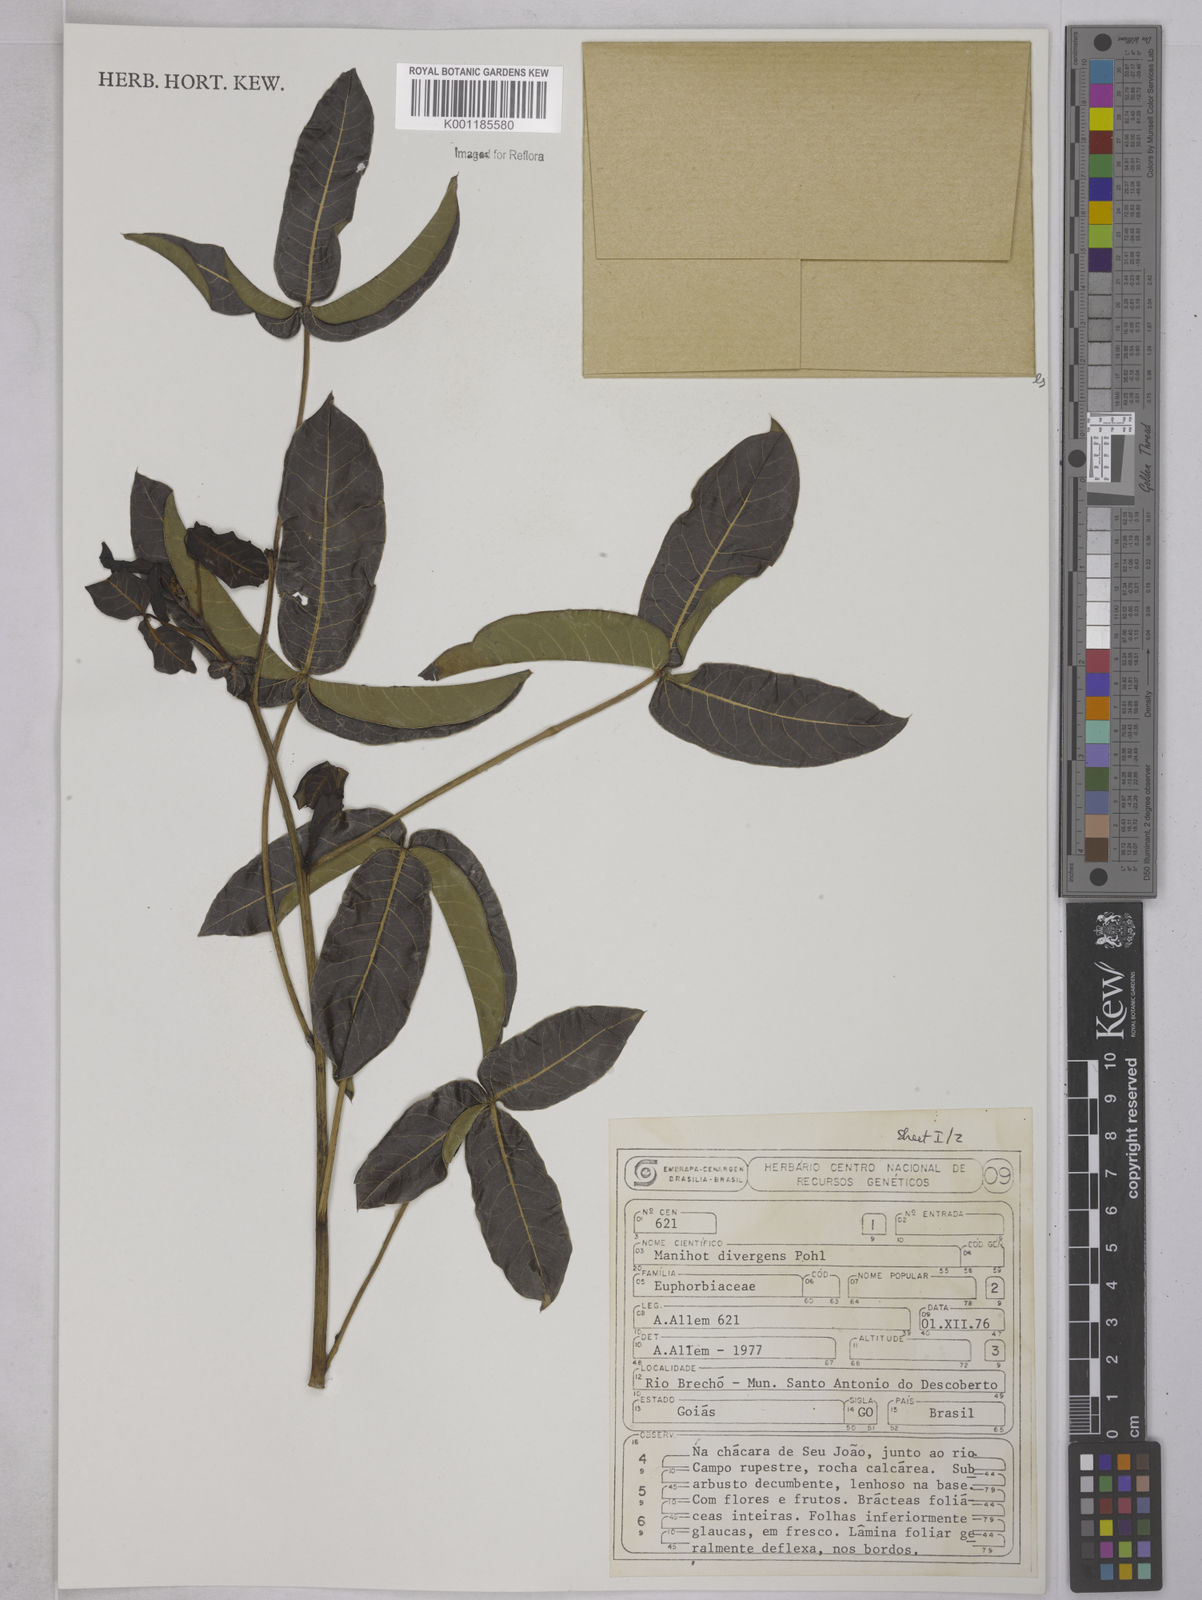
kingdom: Plantae
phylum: Tracheophyta
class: Magnoliopsida
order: Malpighiales
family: Euphorbiaceae
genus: Manihot
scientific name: Manihot divergens
